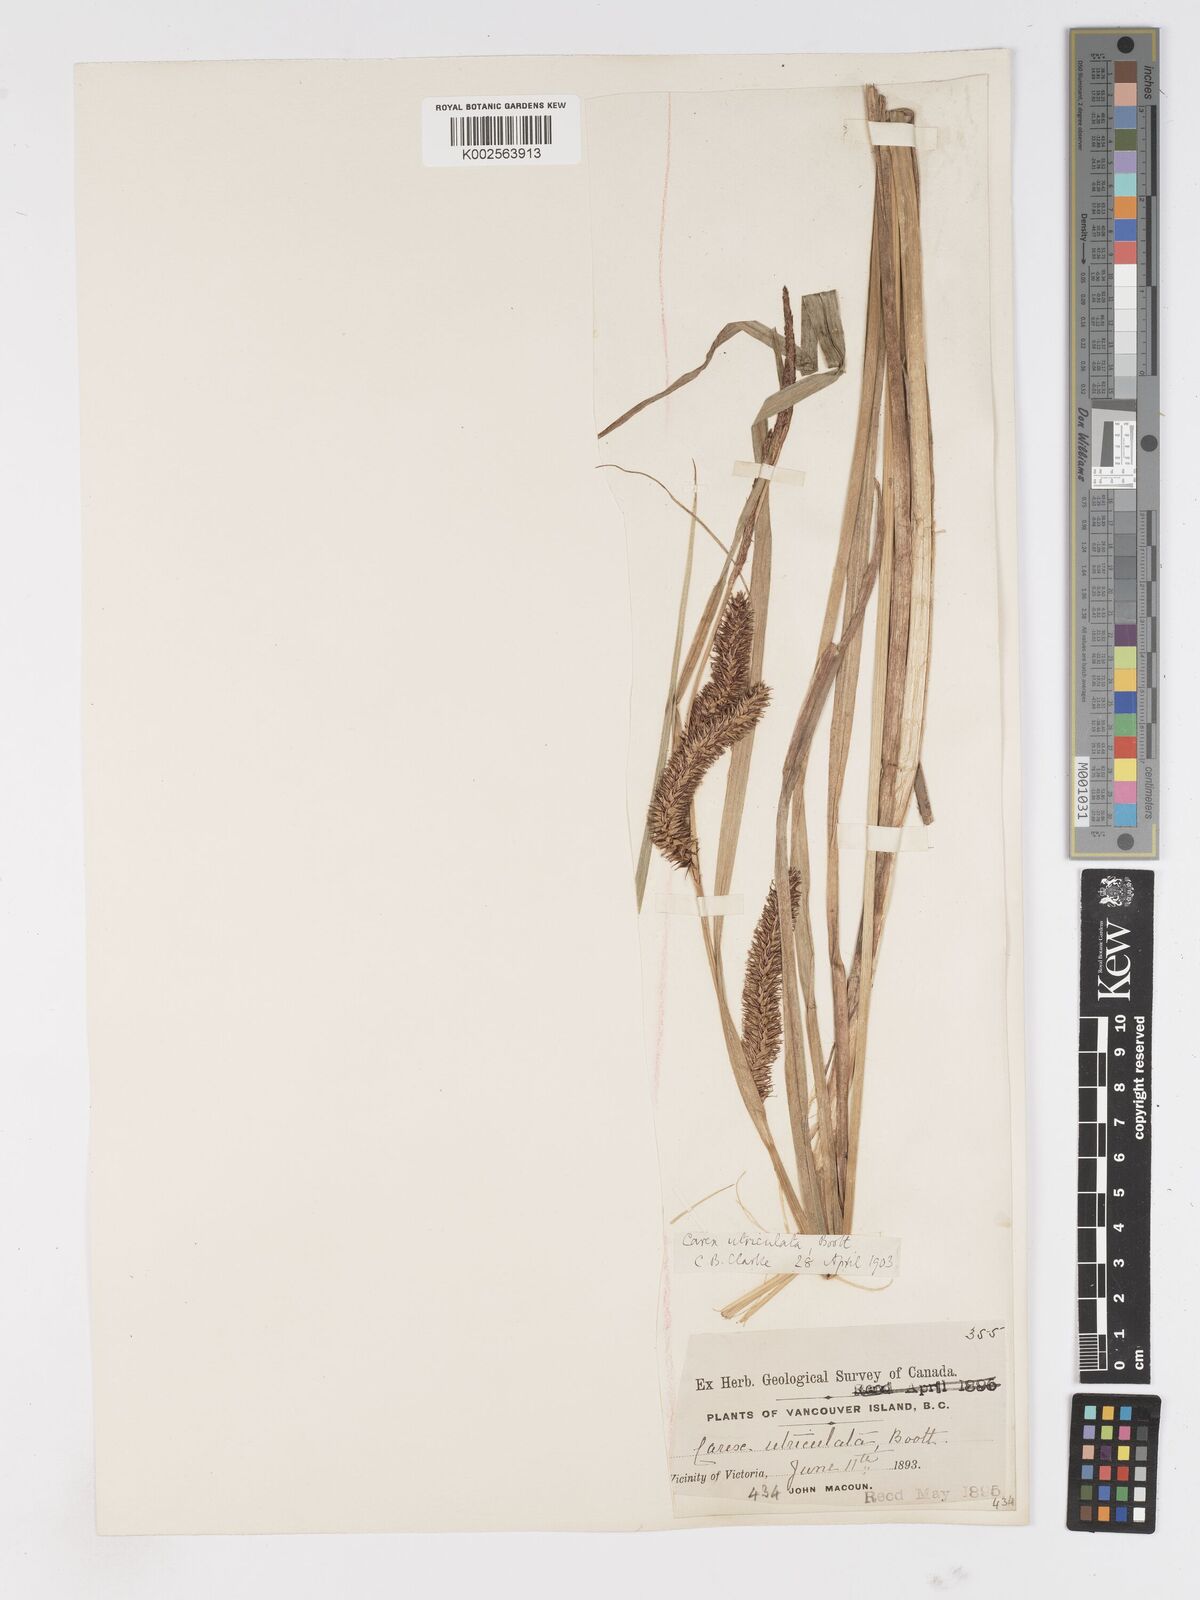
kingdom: Plantae
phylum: Tracheophyta
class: Liliopsida
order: Poales
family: Cyperaceae
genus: Carex
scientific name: Carex rostrata
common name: Bottle sedge
